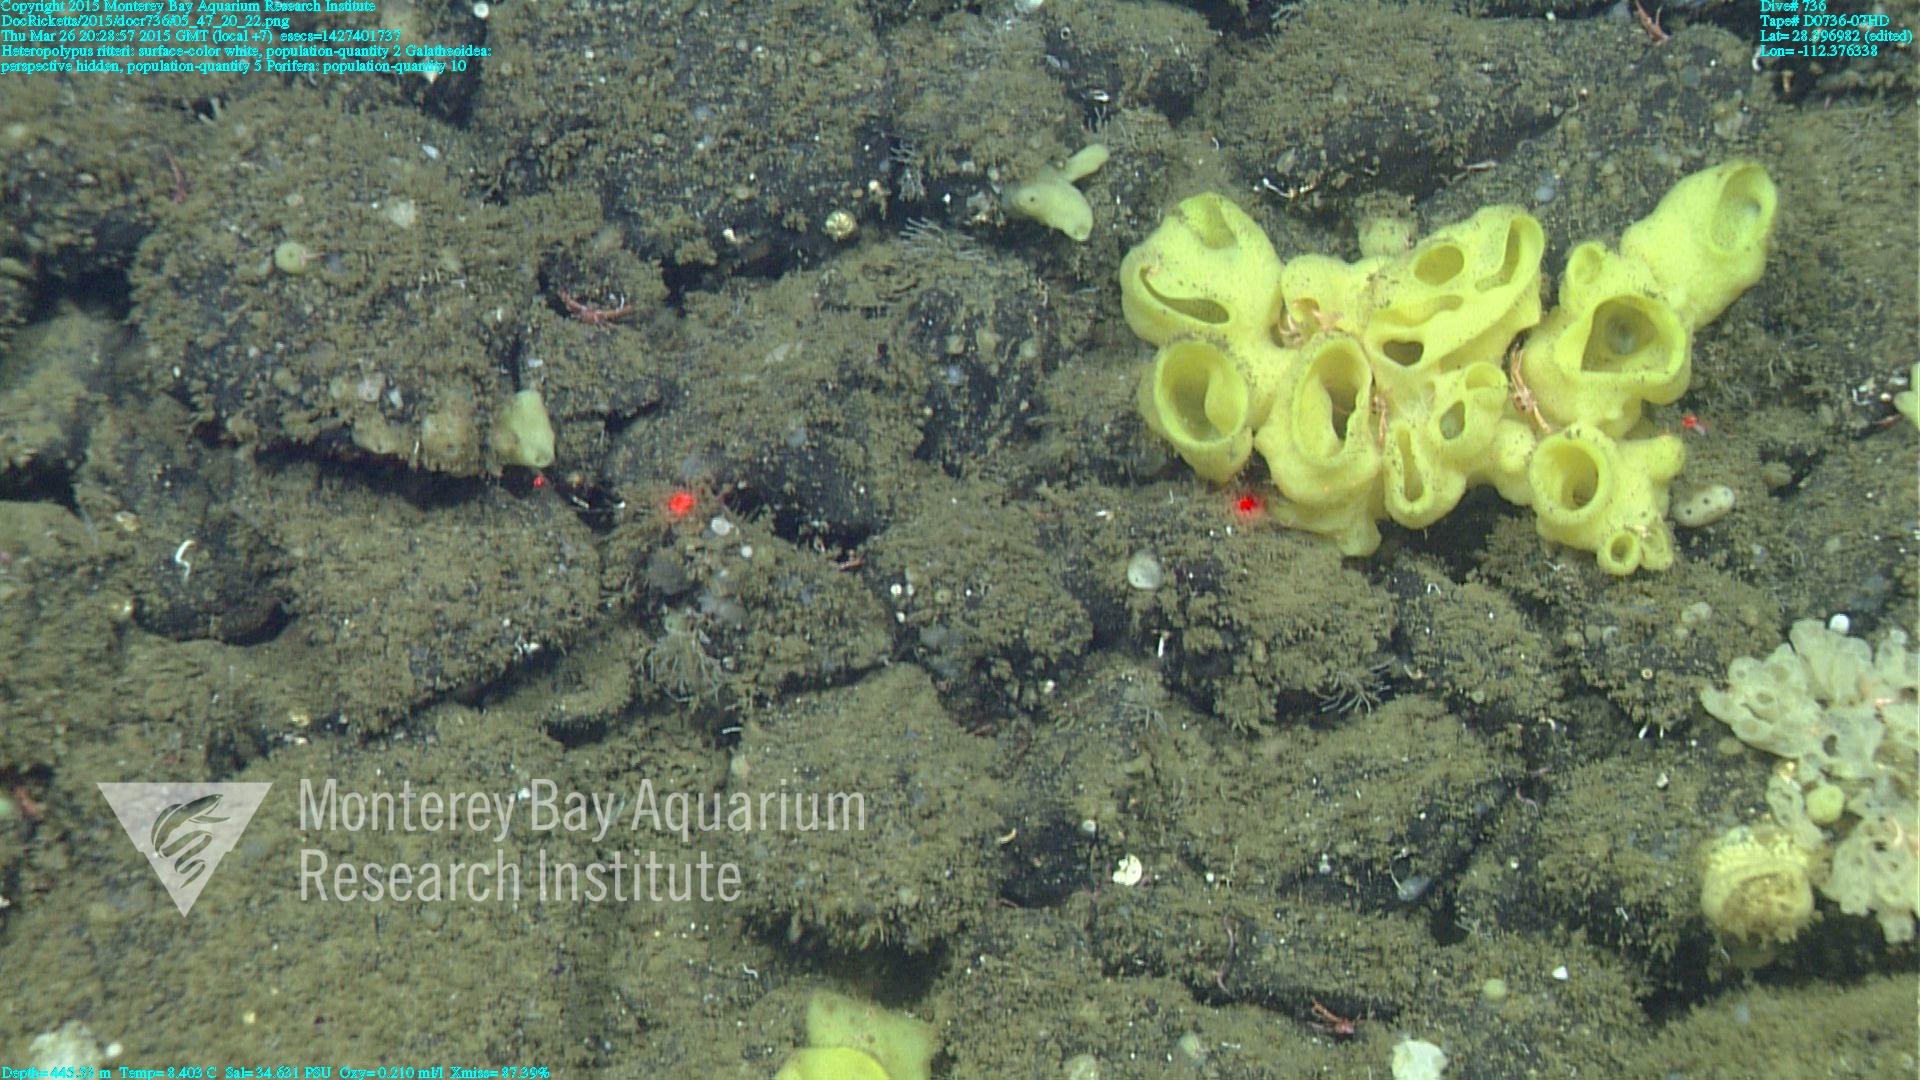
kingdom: Animalia
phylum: Cnidaria
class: Anthozoa
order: Scleralcyonacea
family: Coralliidae
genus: Heteropolypus
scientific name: Heteropolypus ritteri
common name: Ritter's soft coral
